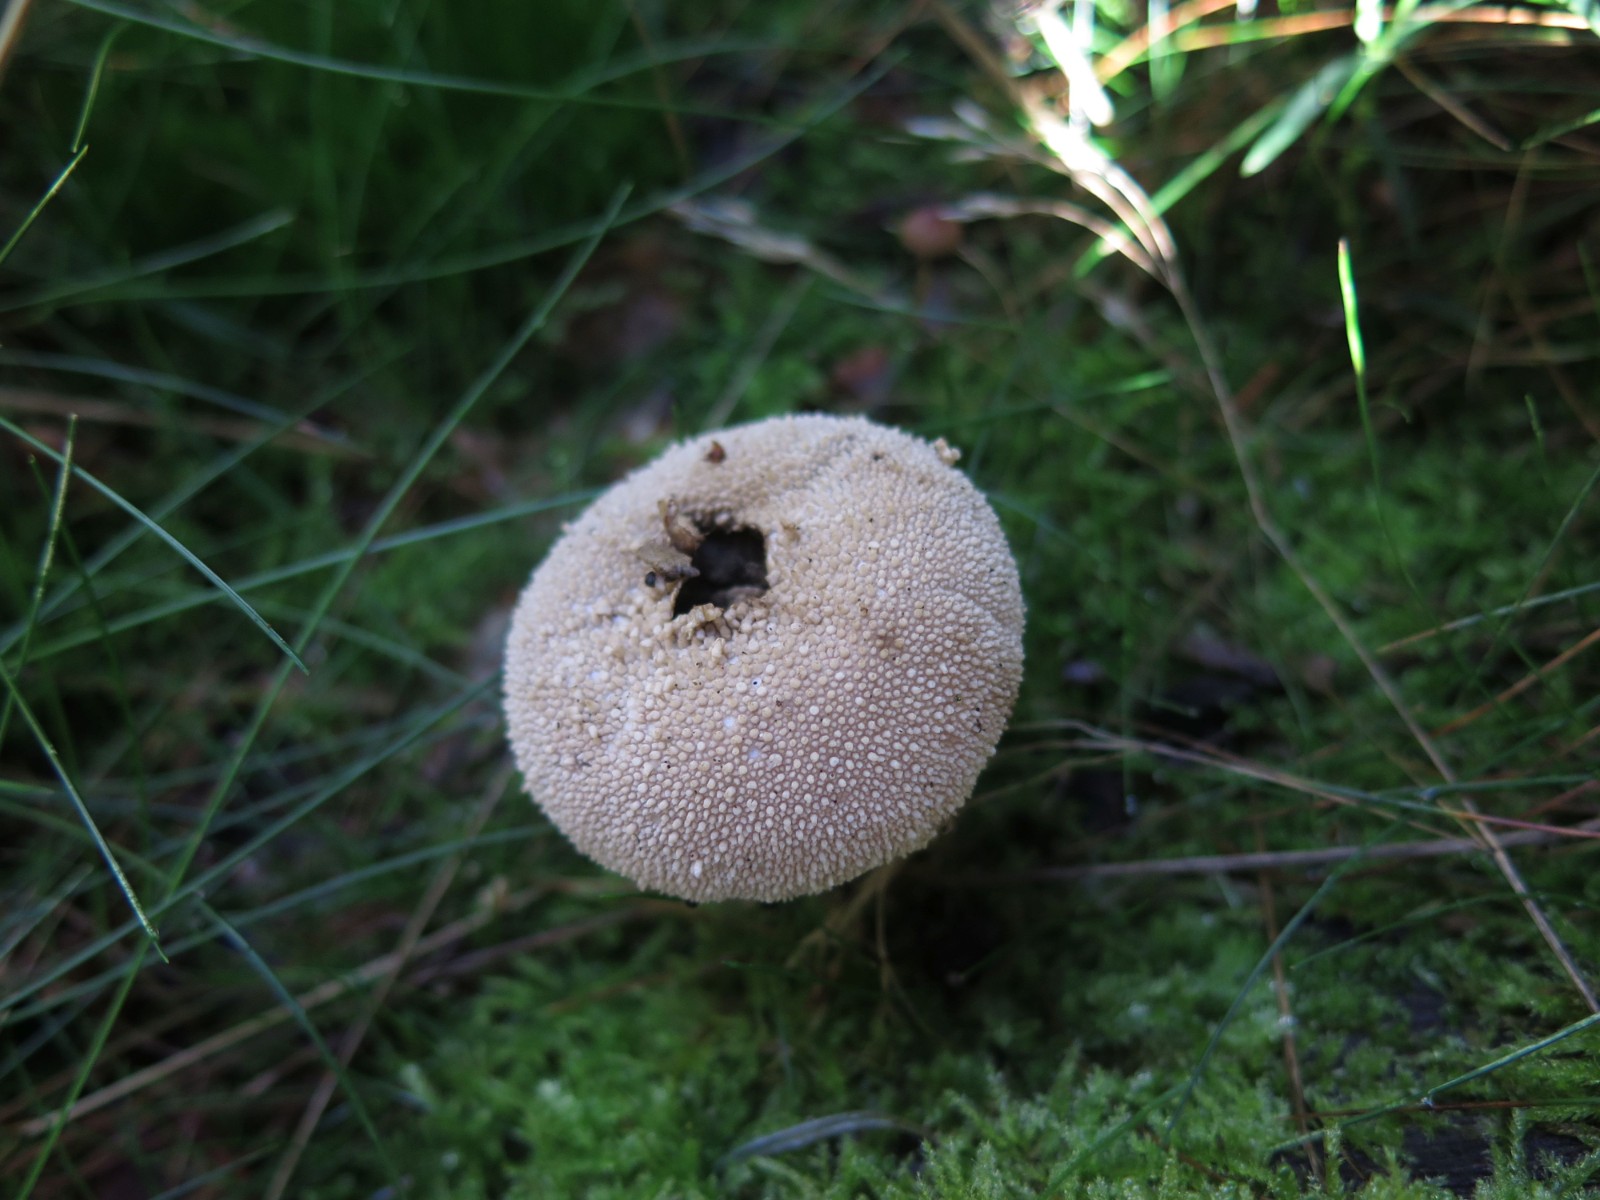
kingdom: Fungi
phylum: Basidiomycota
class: Agaricomycetes
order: Agaricales
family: Lycoperdaceae
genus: Lycoperdon
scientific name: Lycoperdon perlatum
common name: krystal-støvbold
